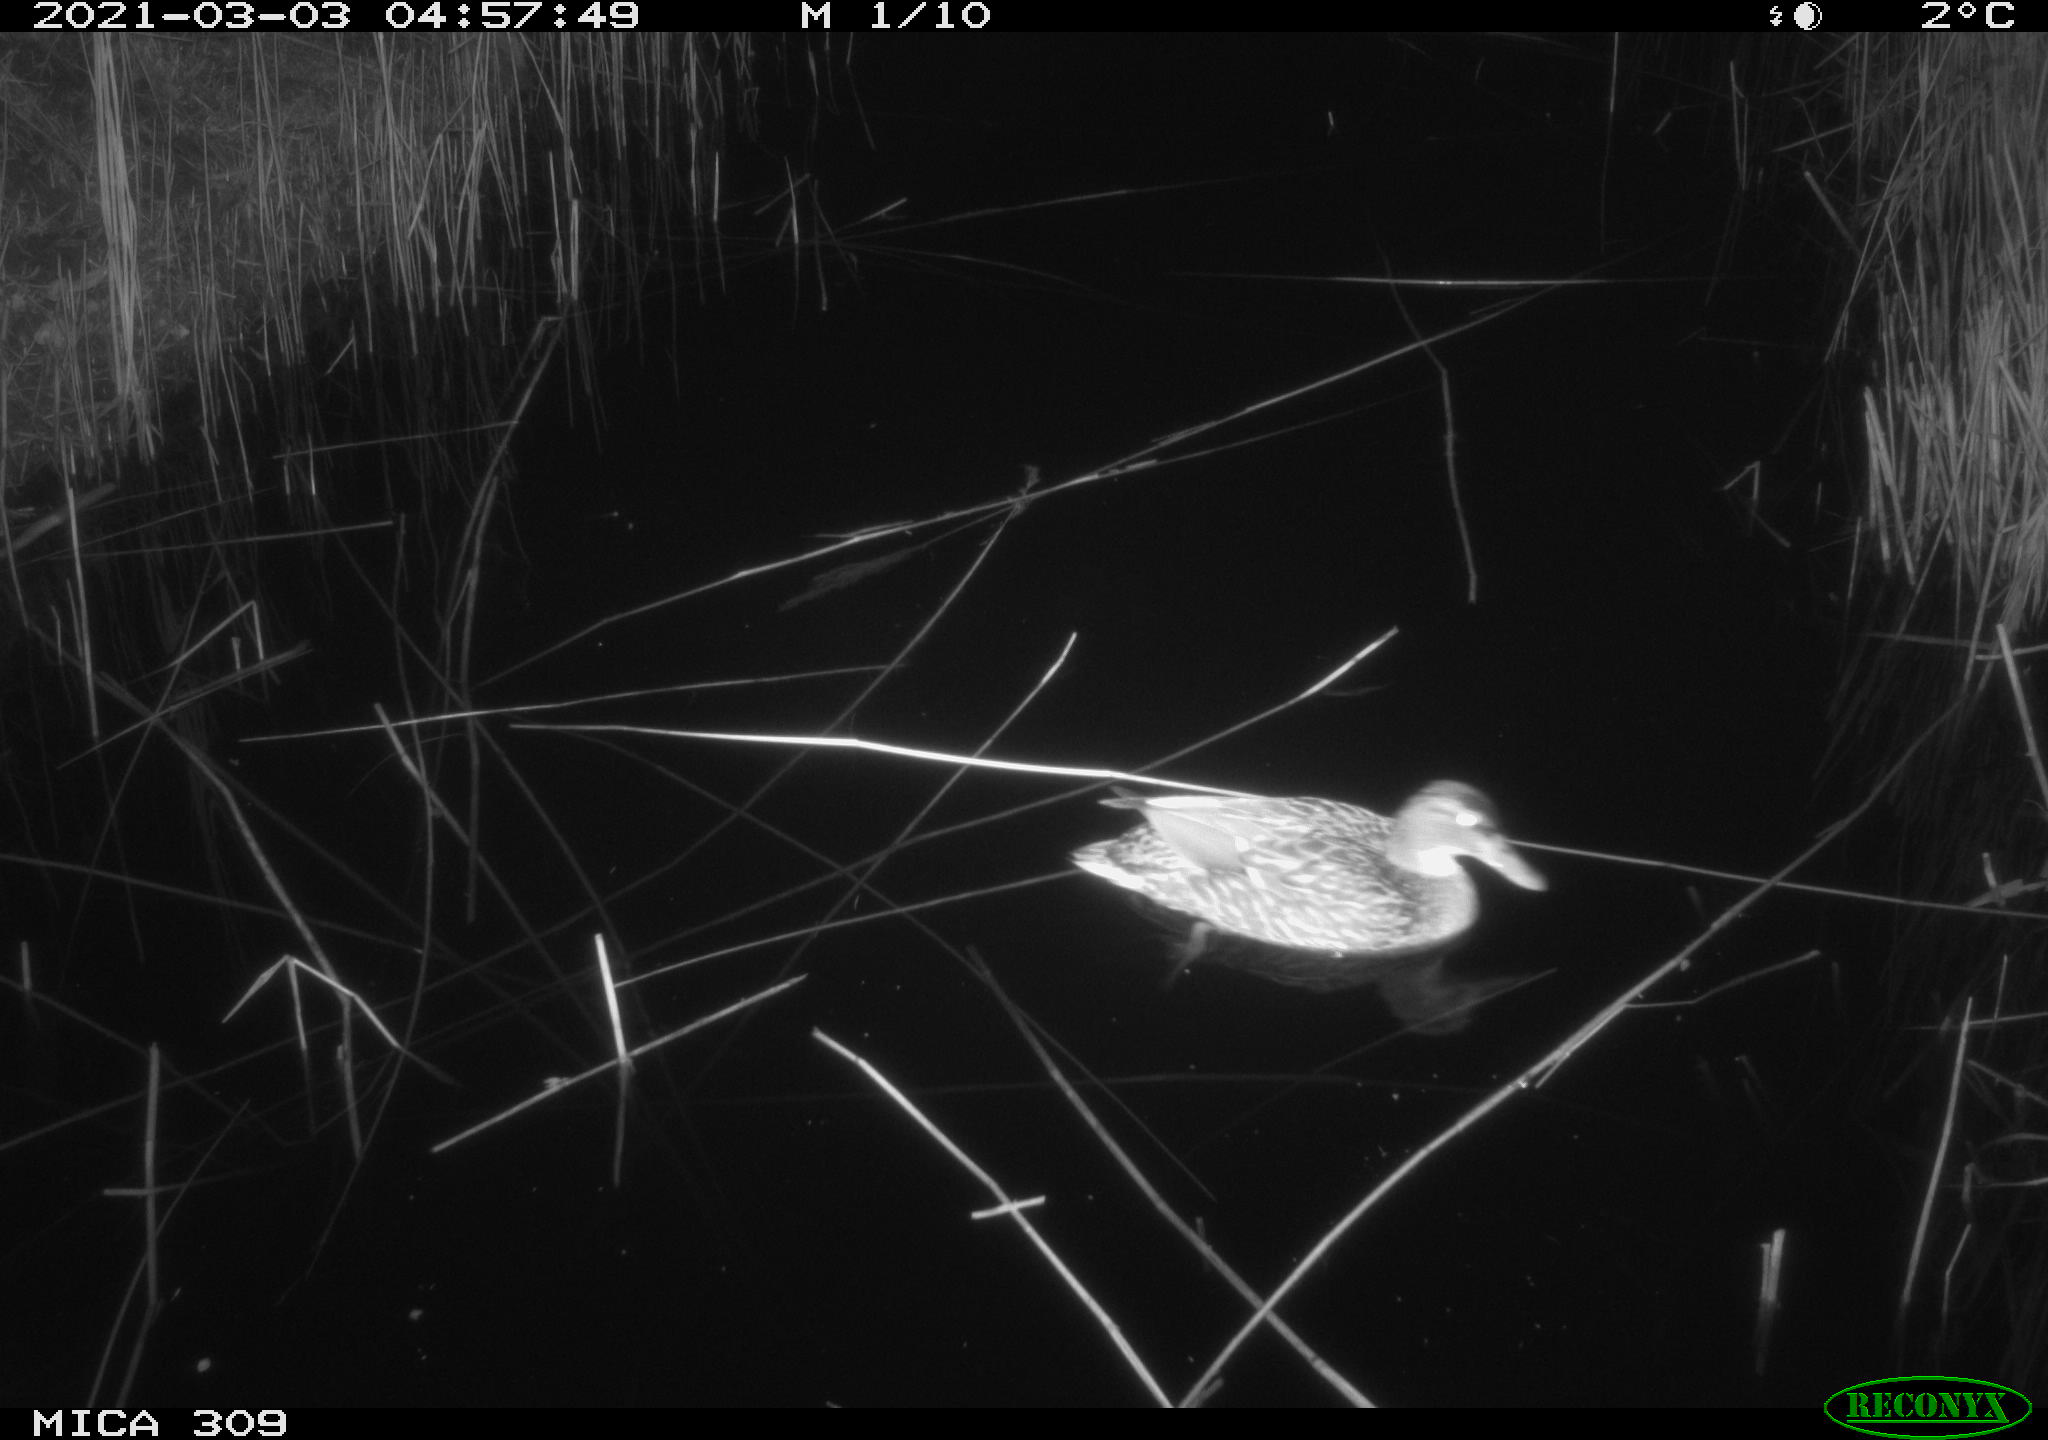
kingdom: Animalia
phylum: Chordata
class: Aves
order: Anseriformes
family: Anatidae
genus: Anas
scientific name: Anas platyrhynchos
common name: Mallard
